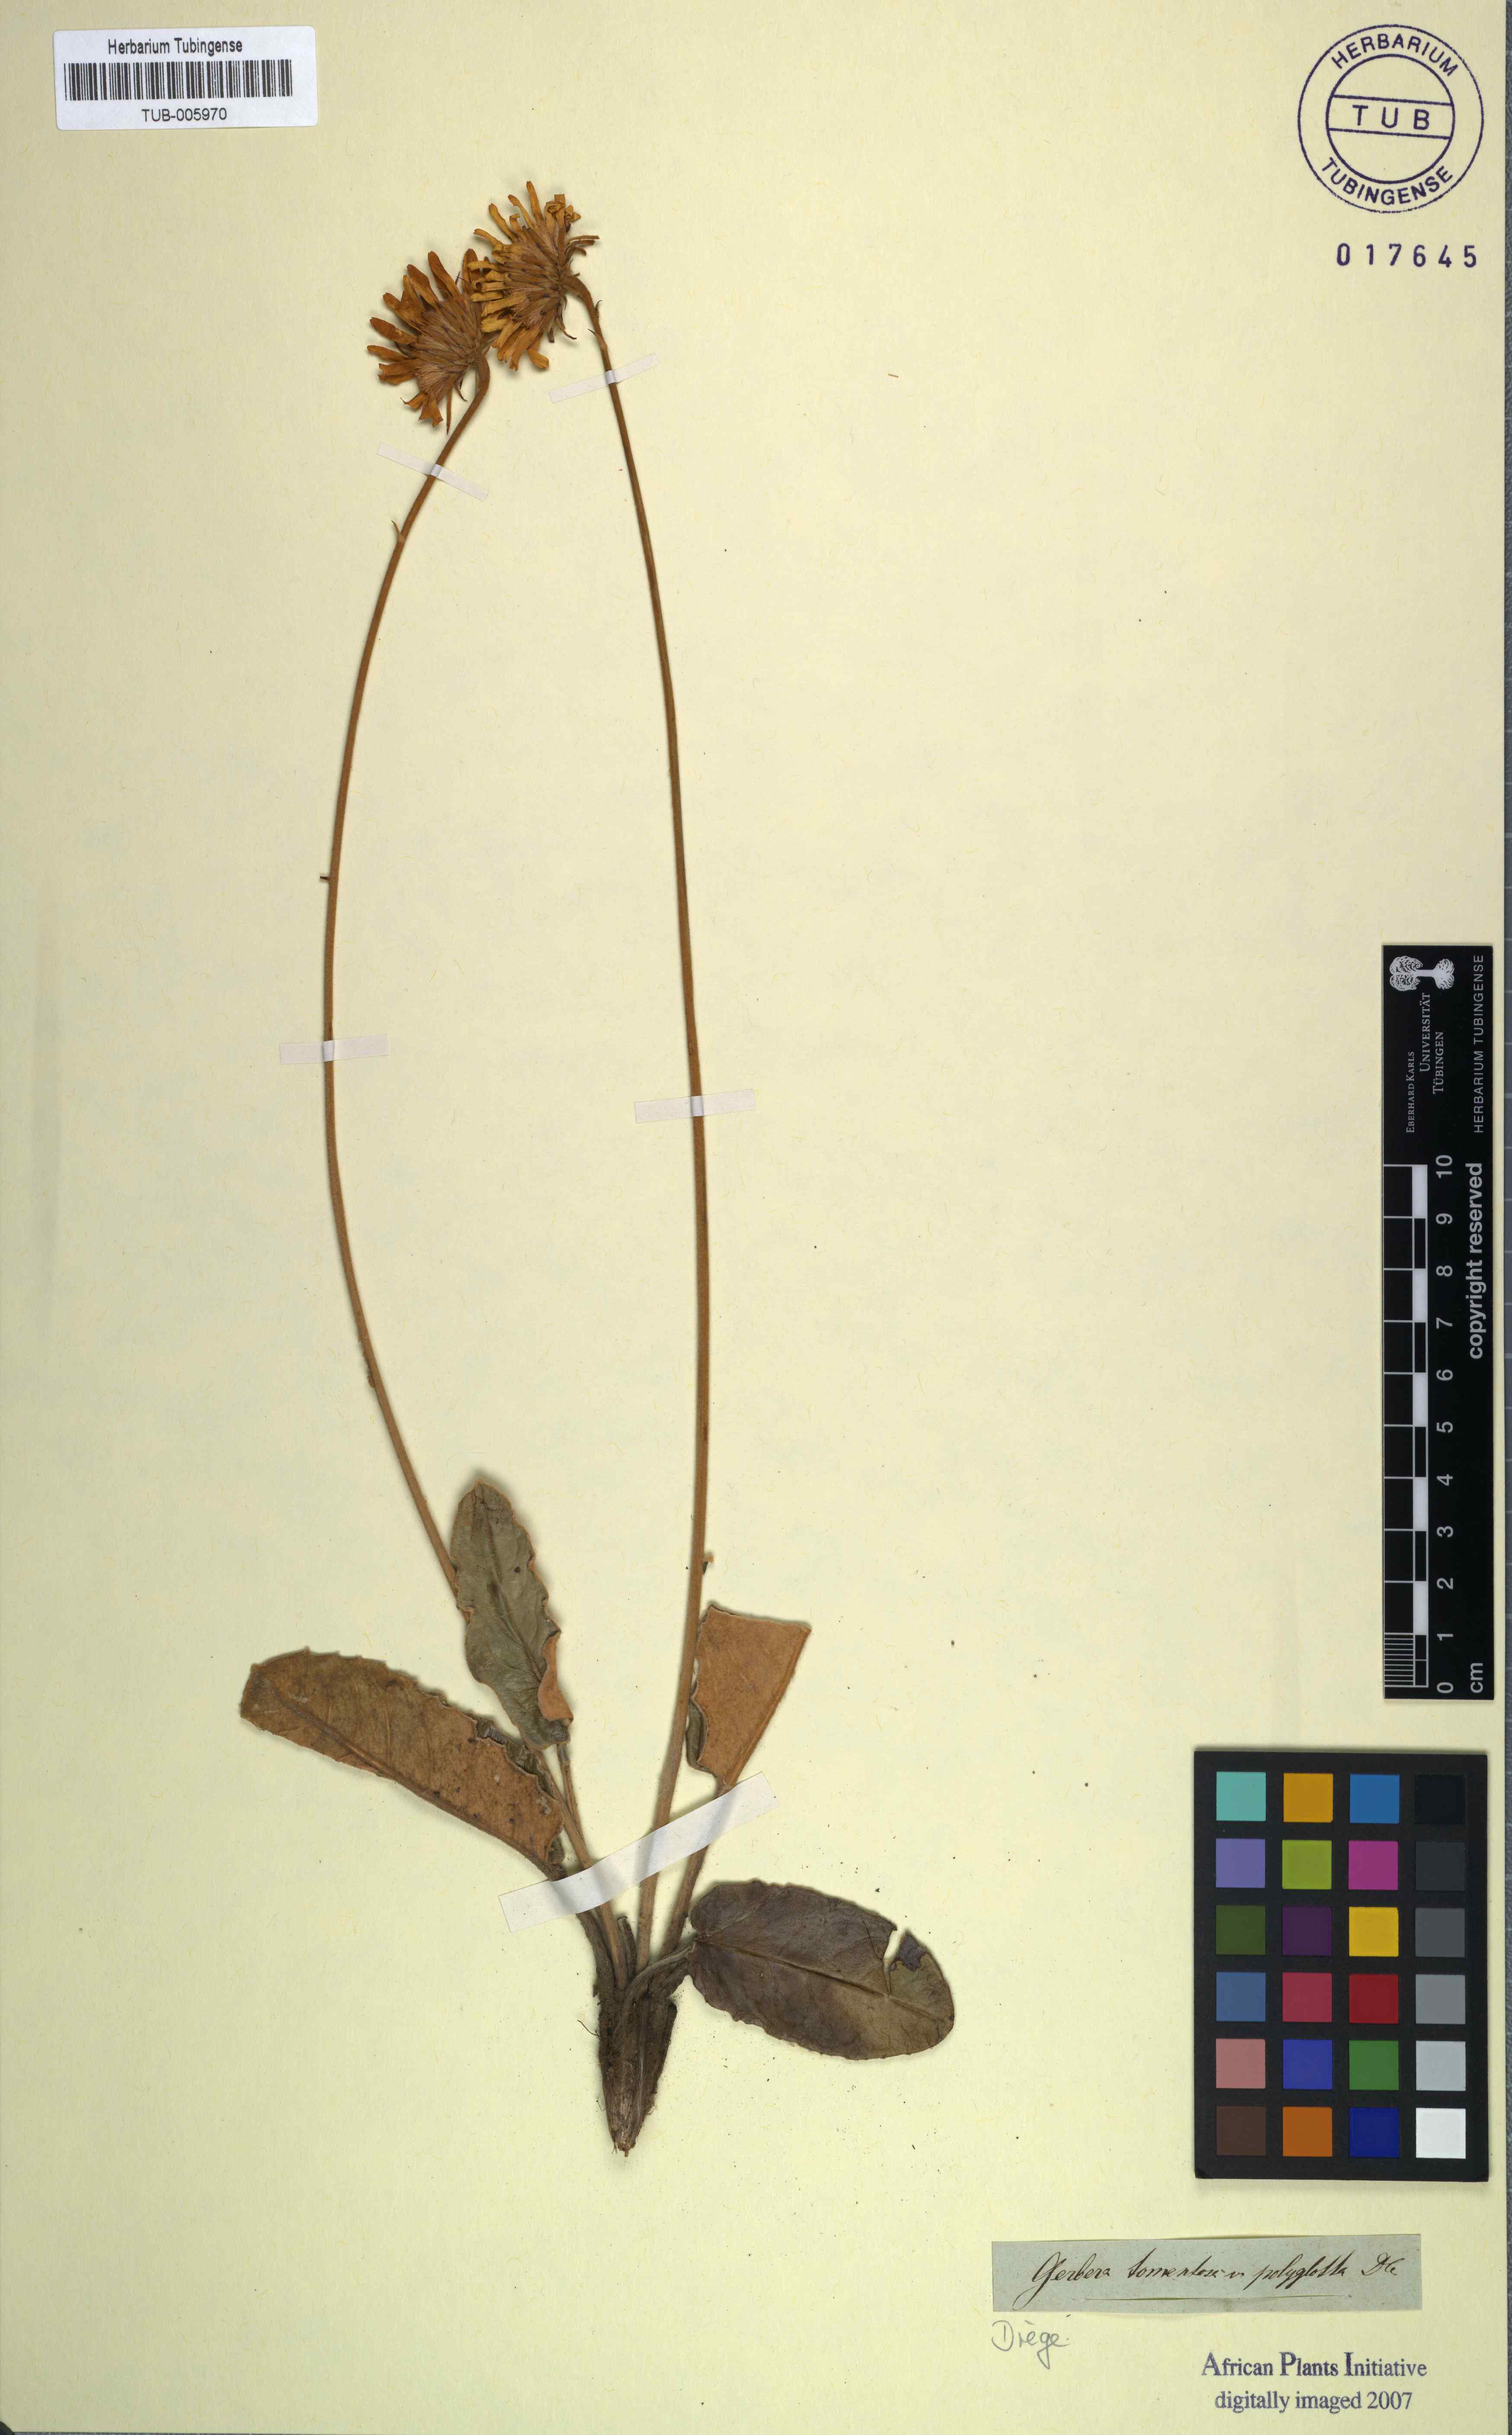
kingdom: Plantae
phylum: Tracheophyta
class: Magnoliopsida
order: Asterales
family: Asteraceae
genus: Gerbera
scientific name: Gerbera tomentosa
